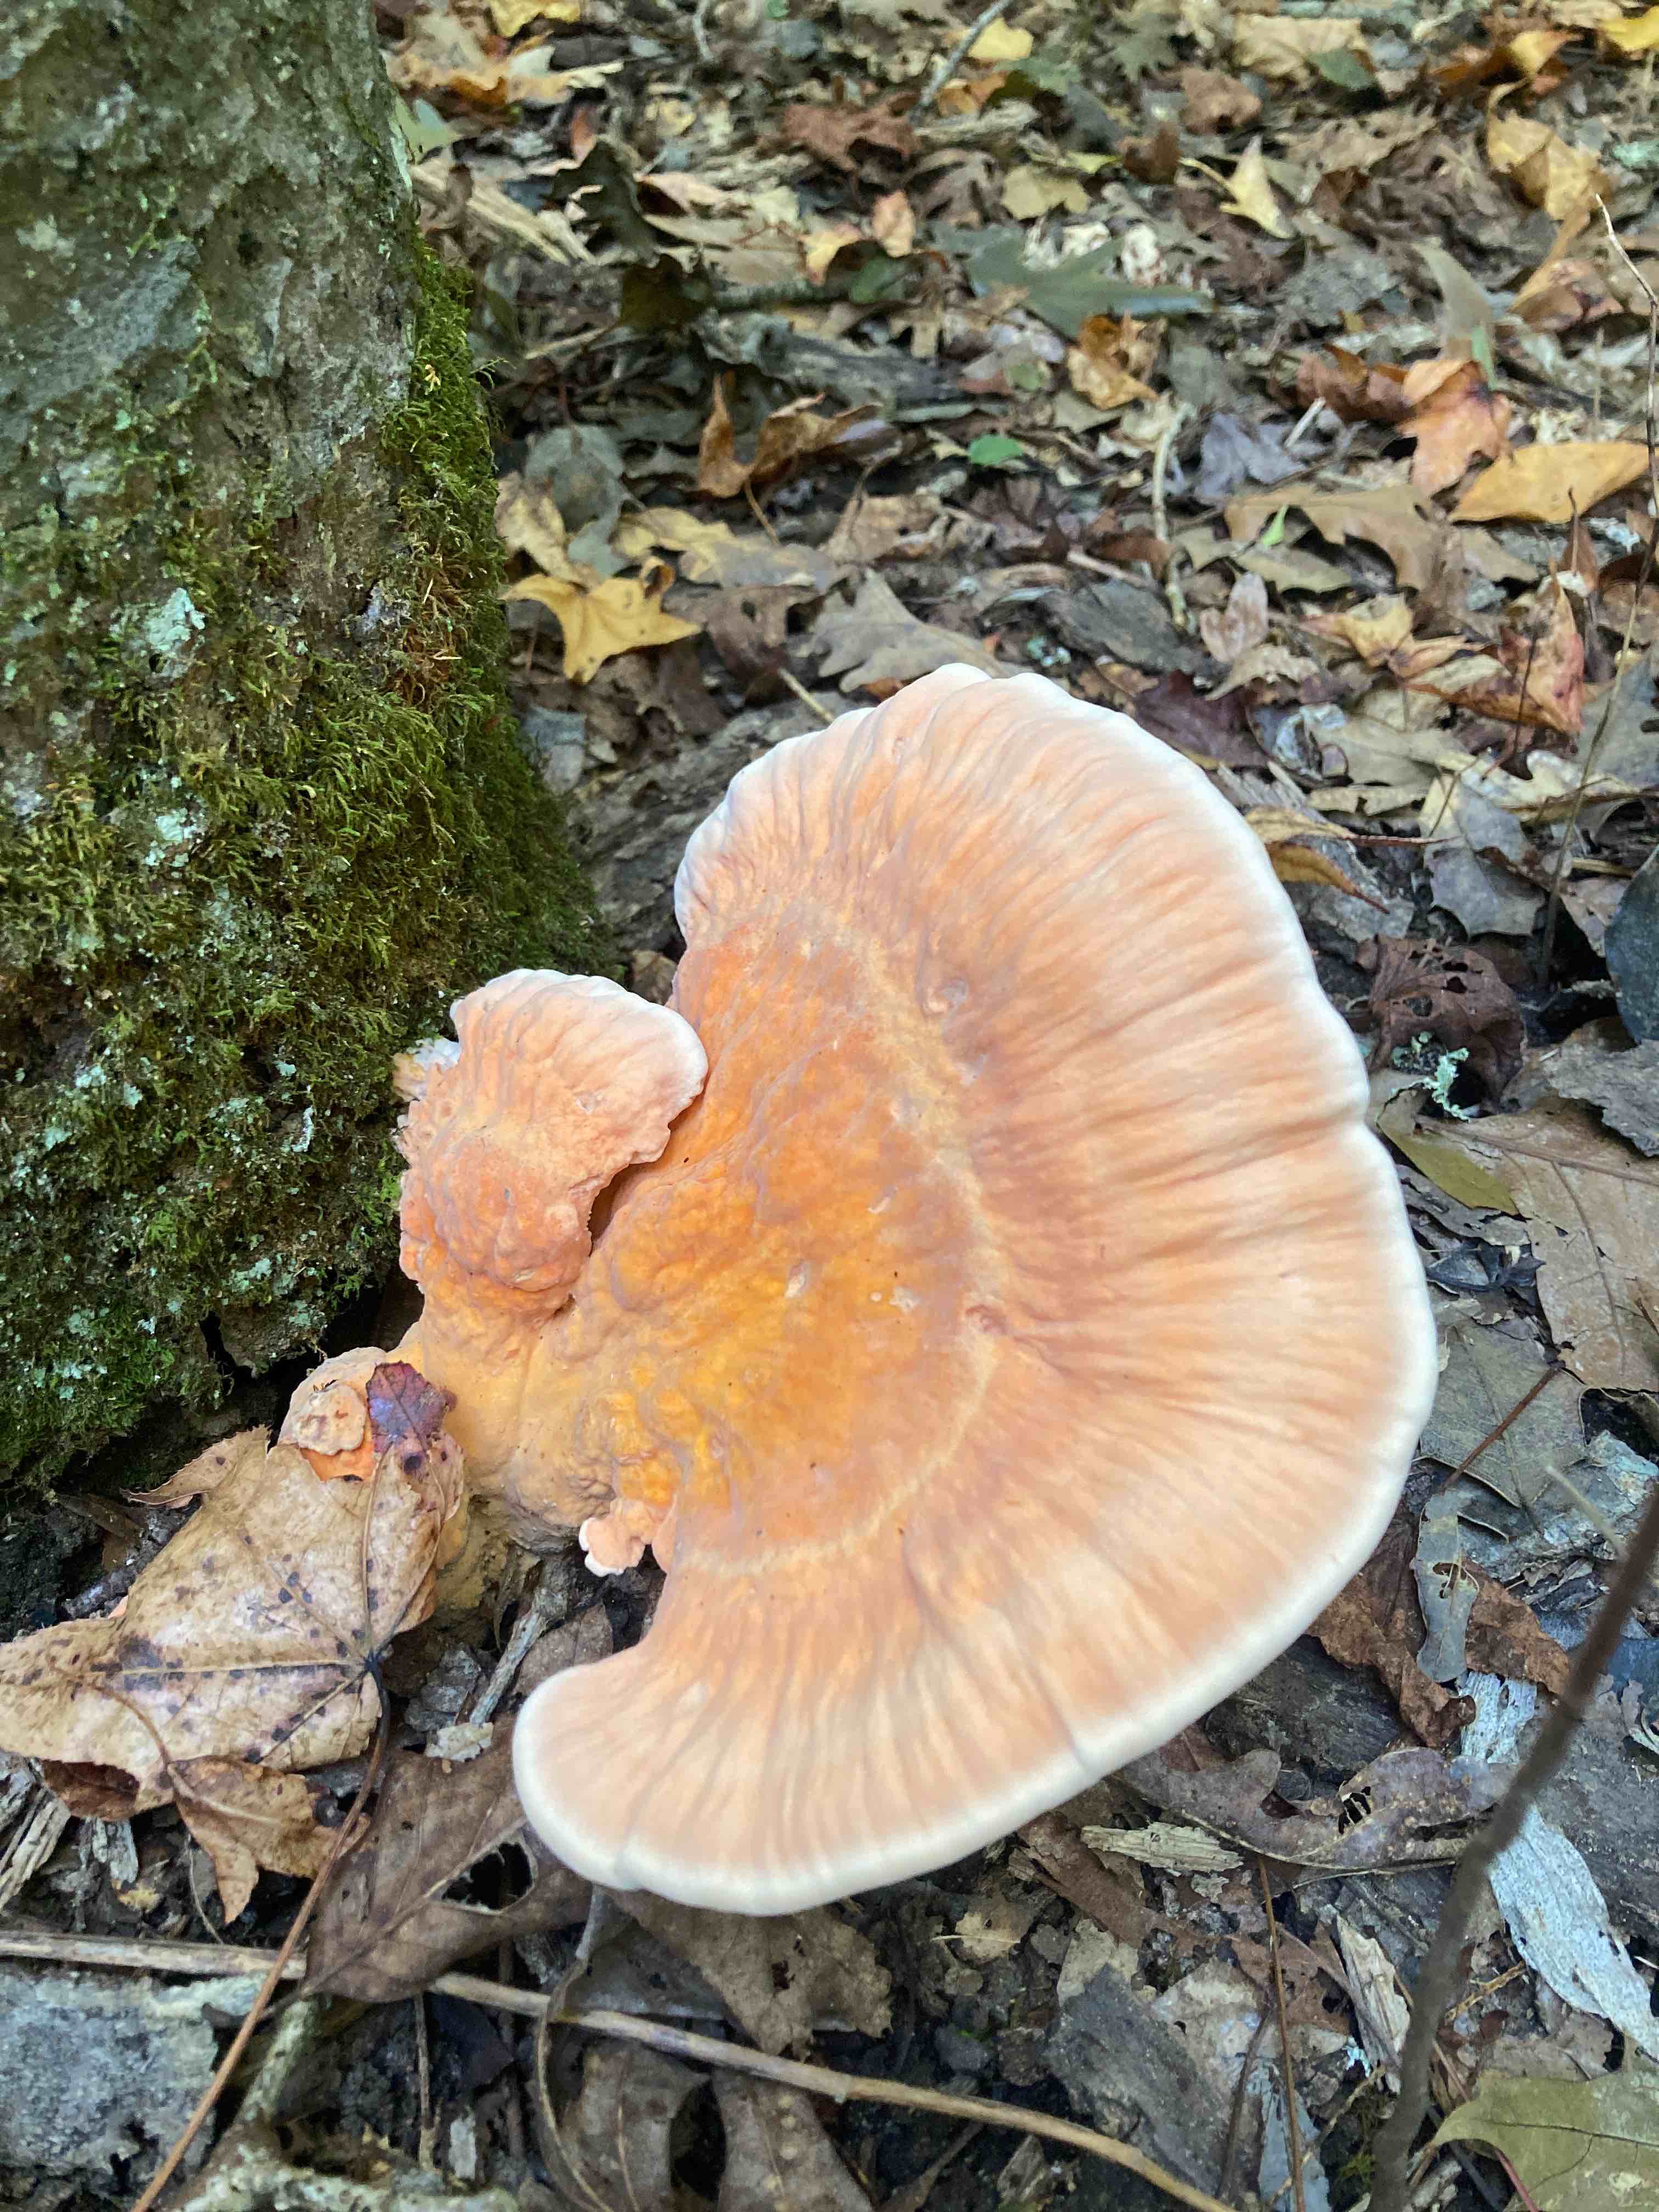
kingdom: Fungi
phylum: Basidiomycota
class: Agaricomycetes
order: Polyporales
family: Laetiporaceae
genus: Laetiporus
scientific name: Laetiporus
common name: svovlporesvamp
